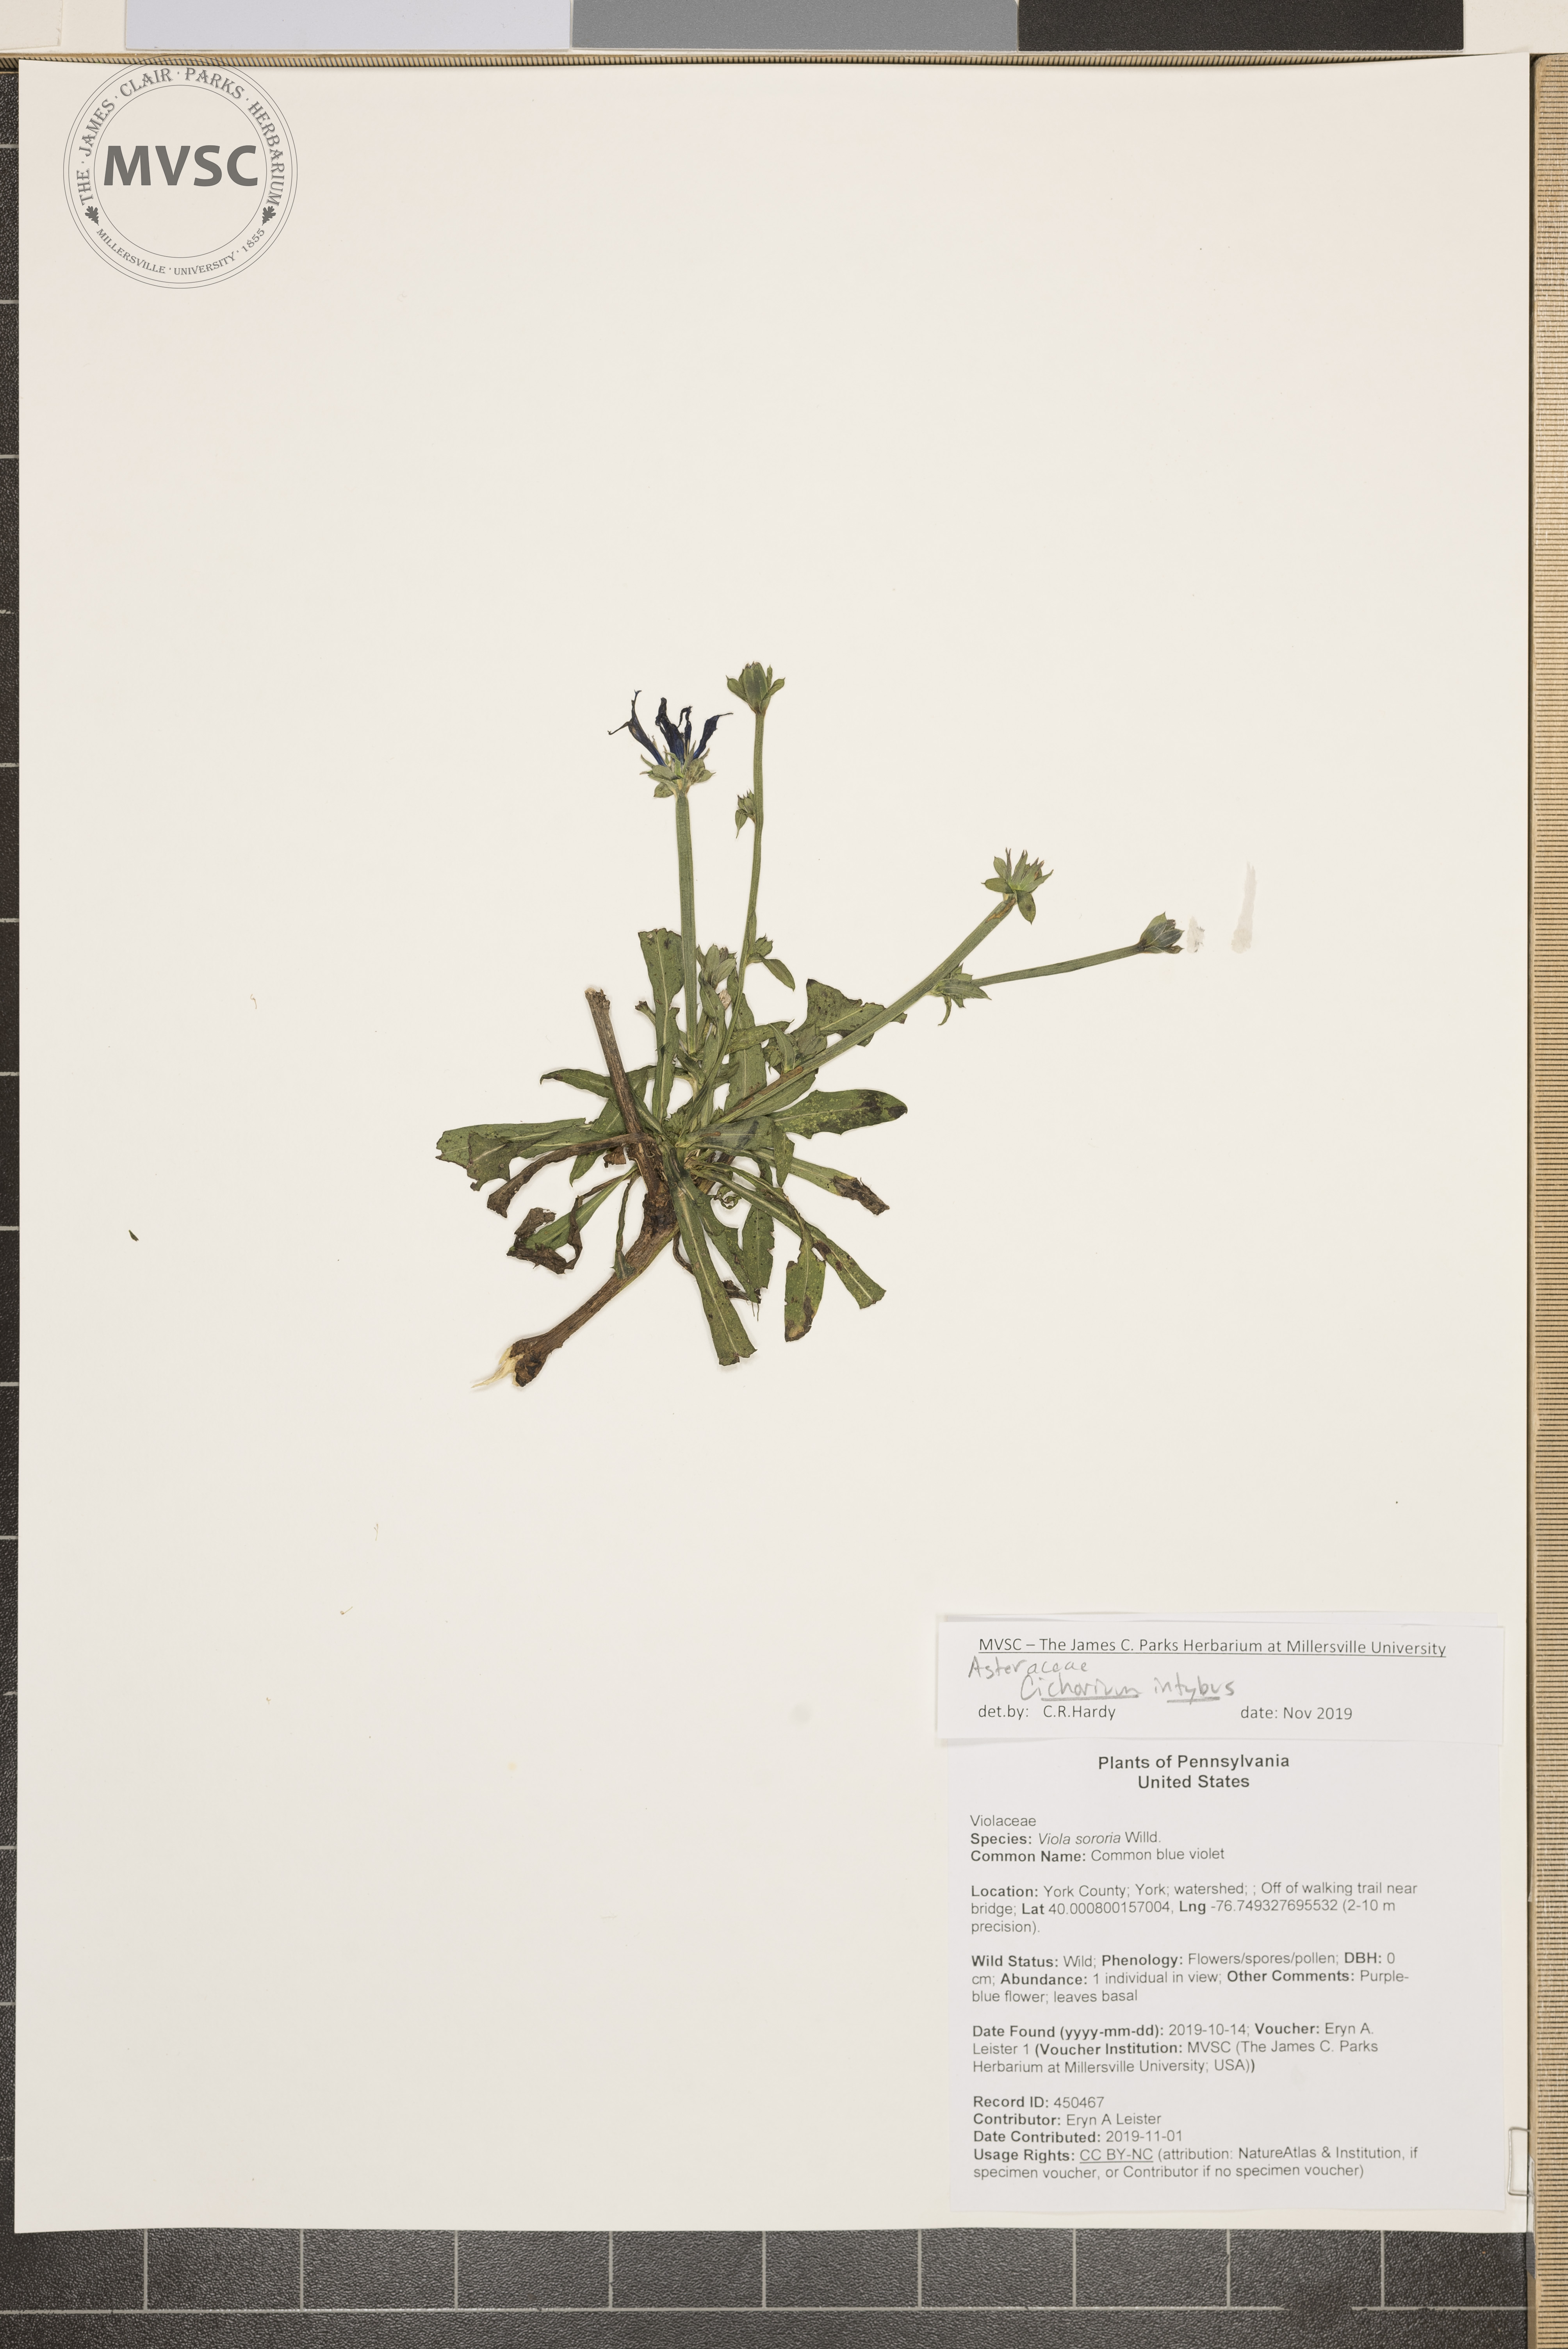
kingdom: Plantae
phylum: Tracheophyta
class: Magnoliopsida
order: Asterales
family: Asteraceae
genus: Cichorium
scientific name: Cichorium intybus
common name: chicory
